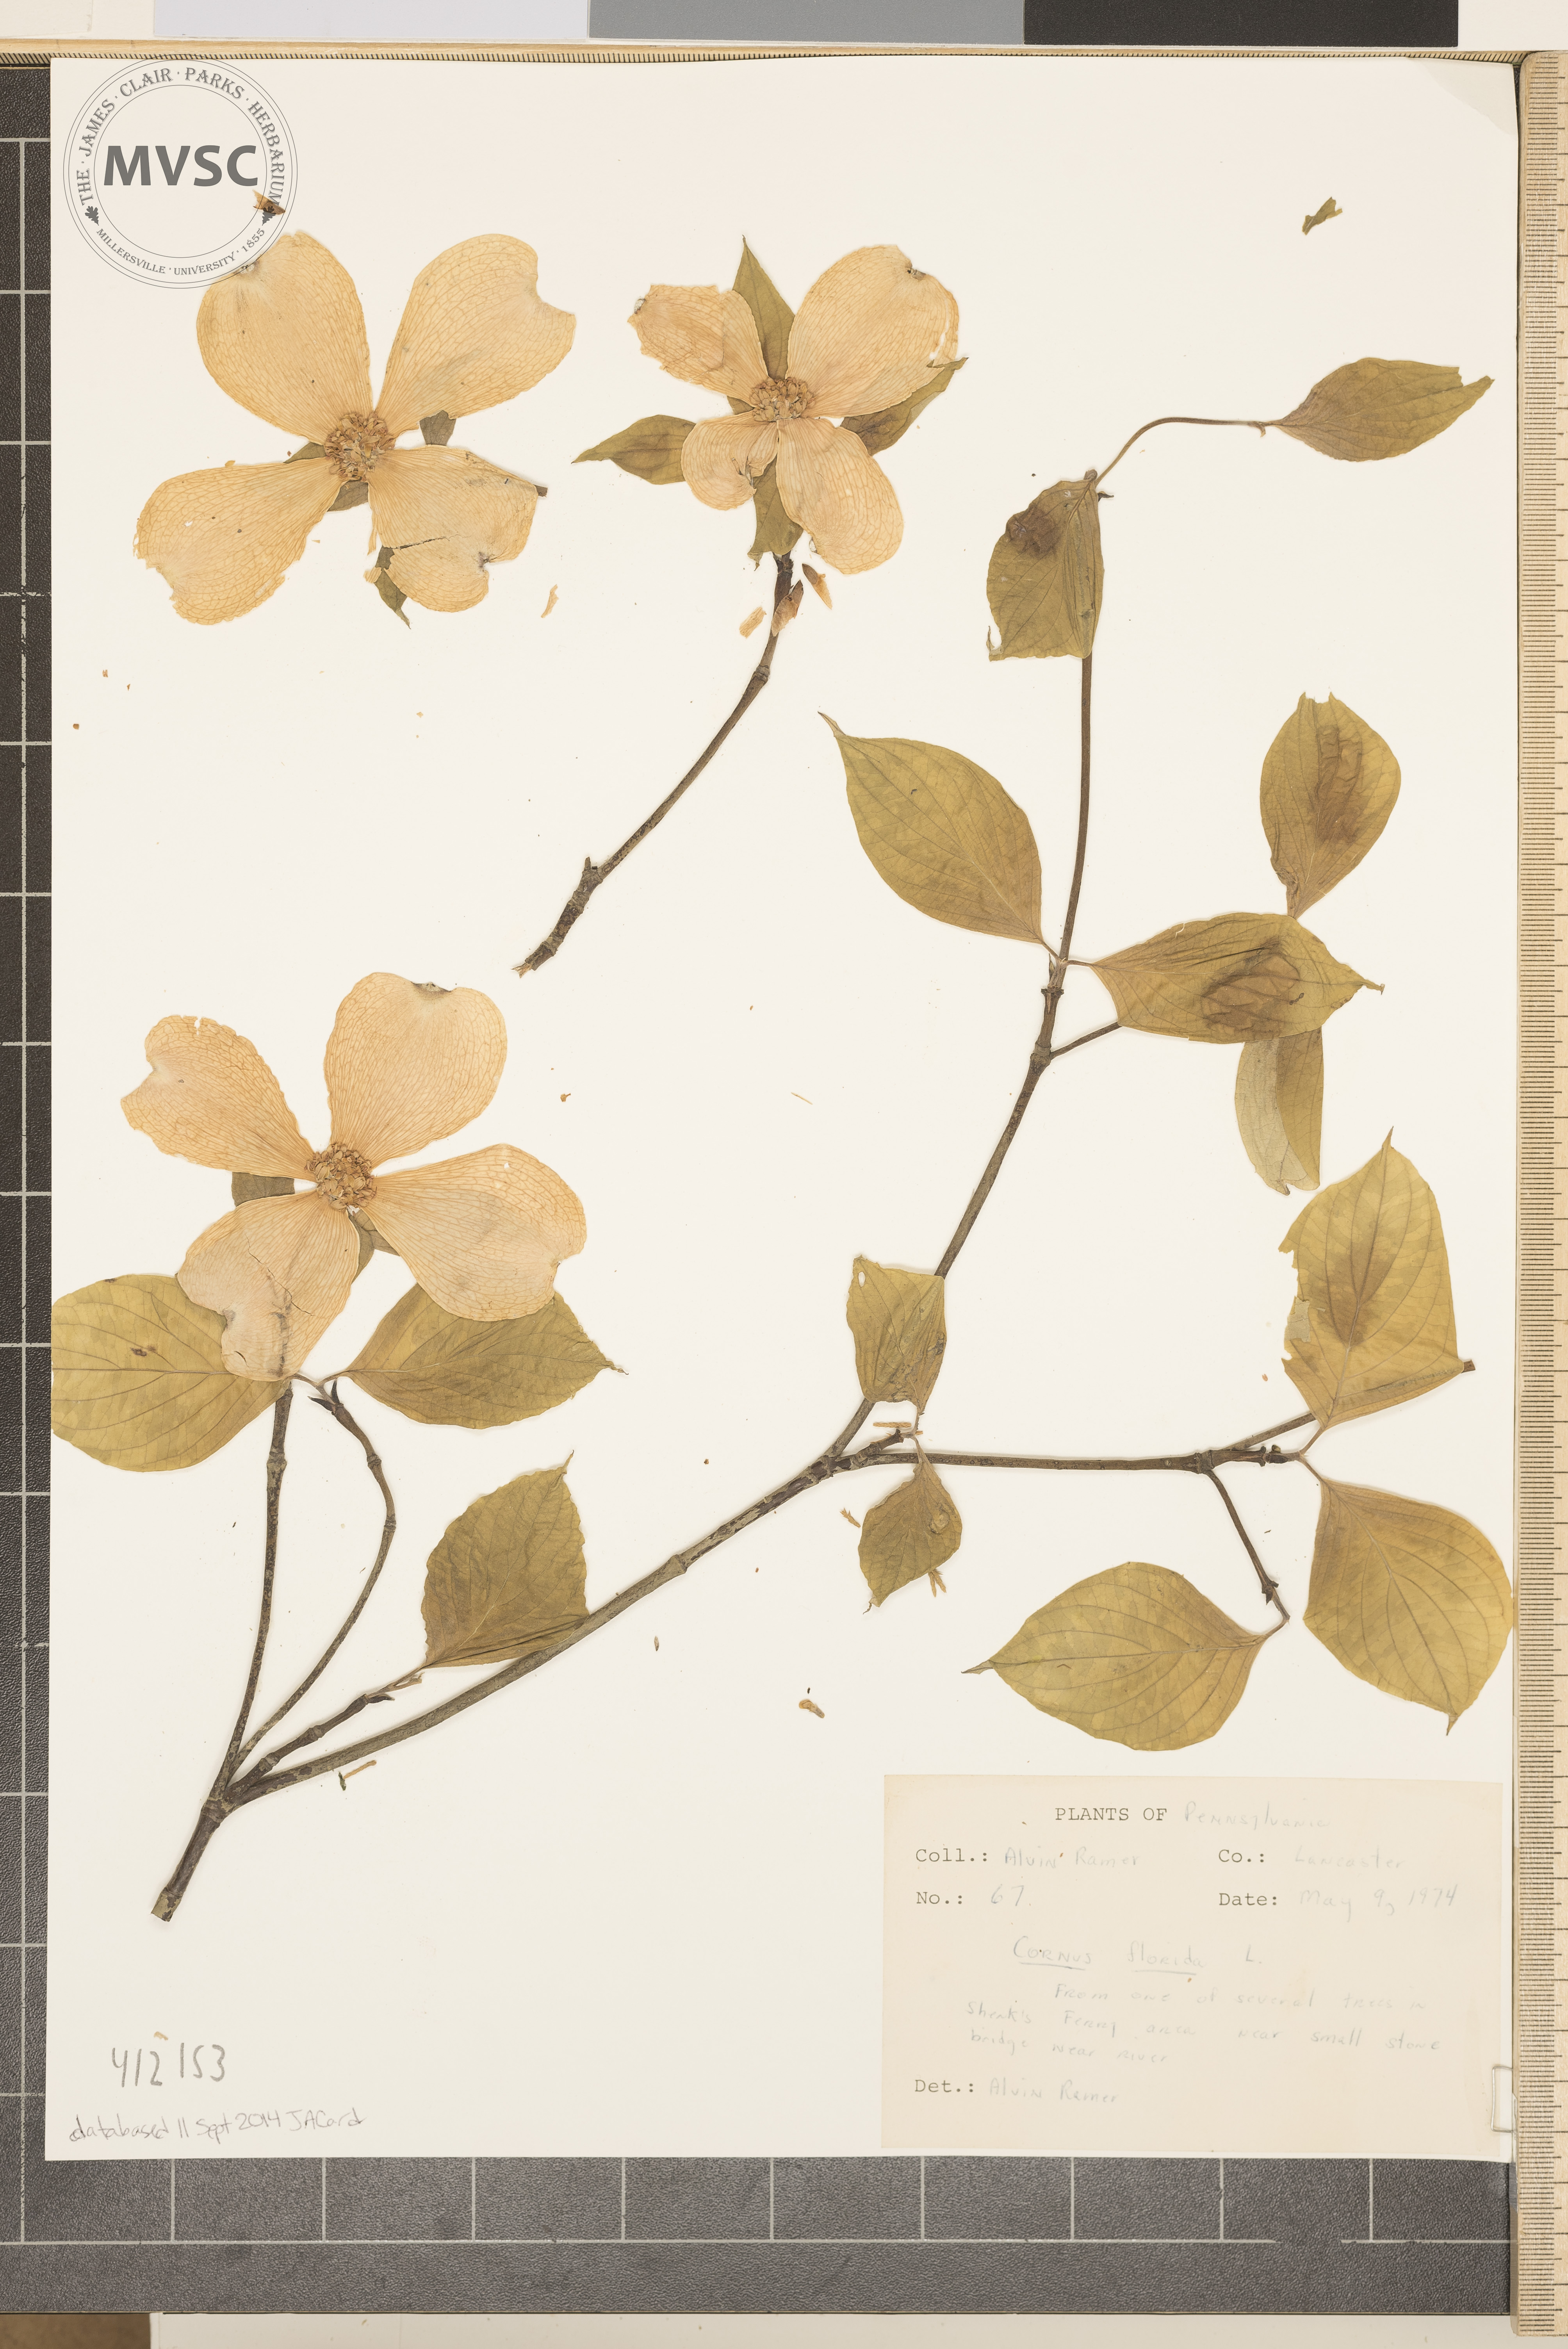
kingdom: Plantae
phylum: Tracheophyta
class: Magnoliopsida
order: Cornales
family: Cornaceae
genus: Cornus
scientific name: Cornus florida
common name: Flowering dogwood
